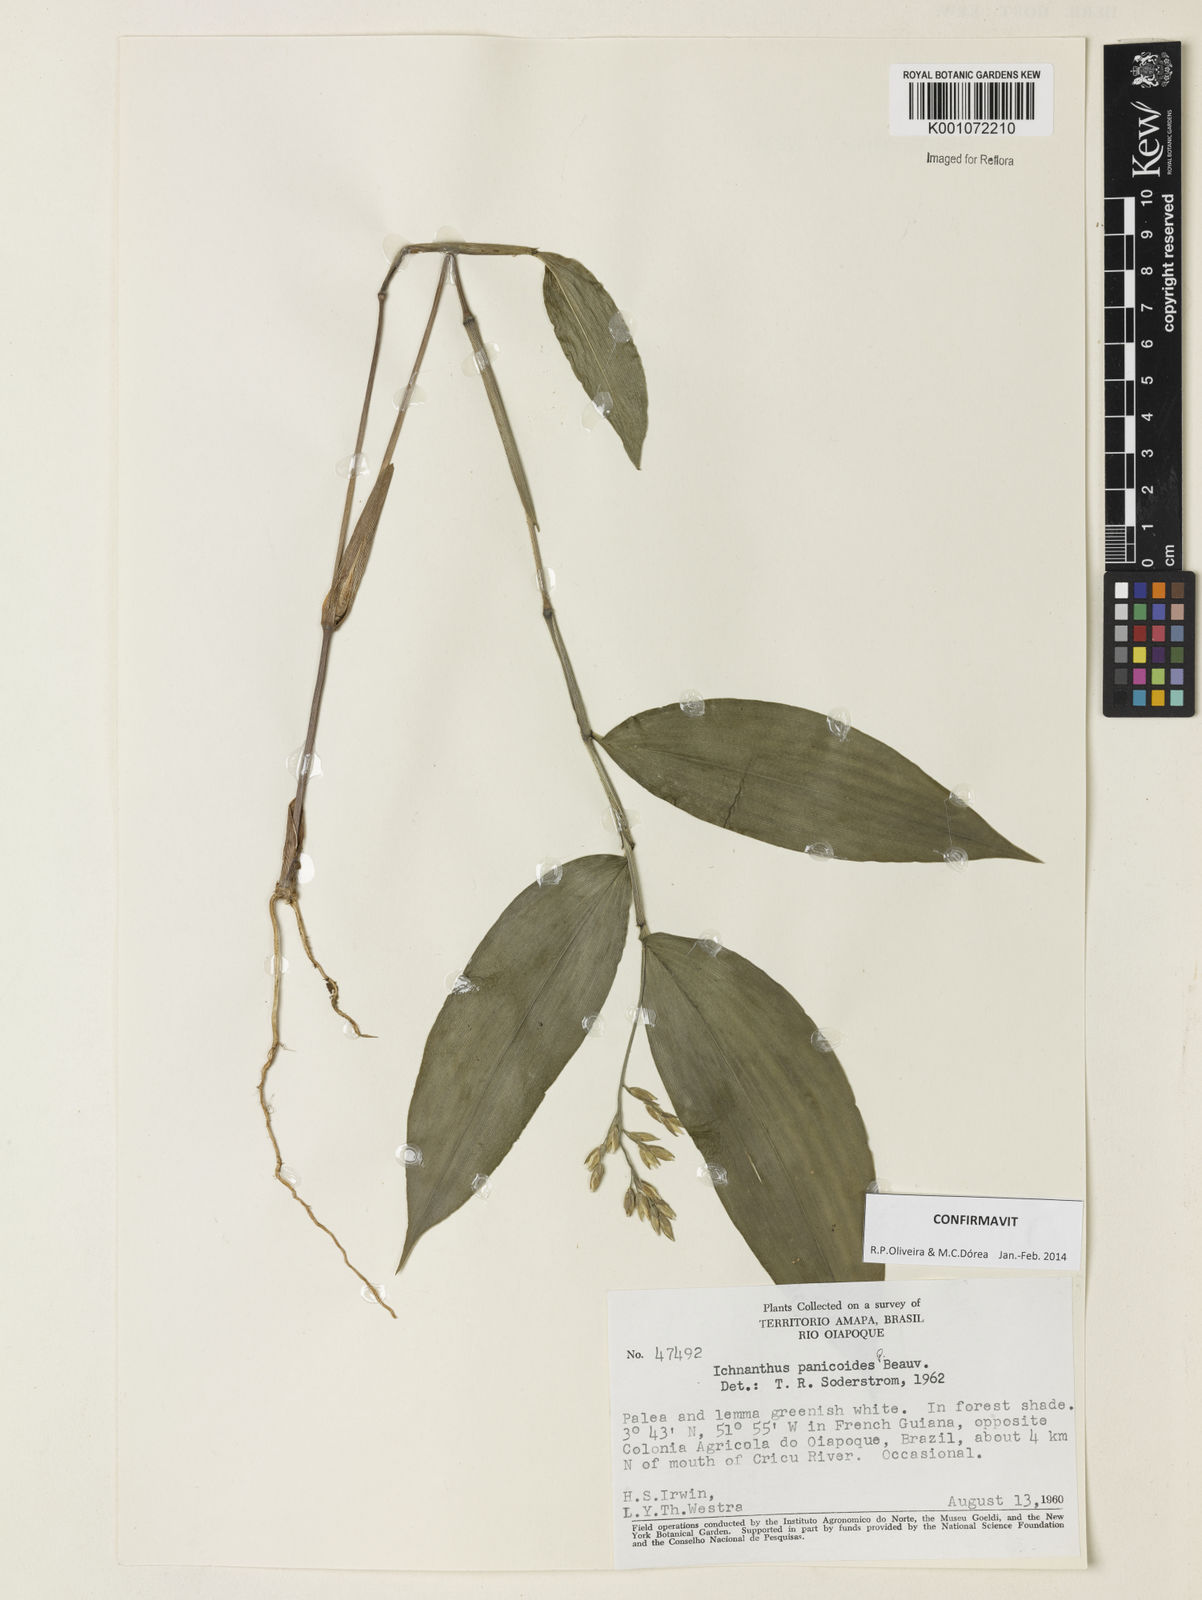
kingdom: Plantae
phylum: Tracheophyta
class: Liliopsida
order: Poales
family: Poaceae
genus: Ichnanthus
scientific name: Ichnanthus panicoides
